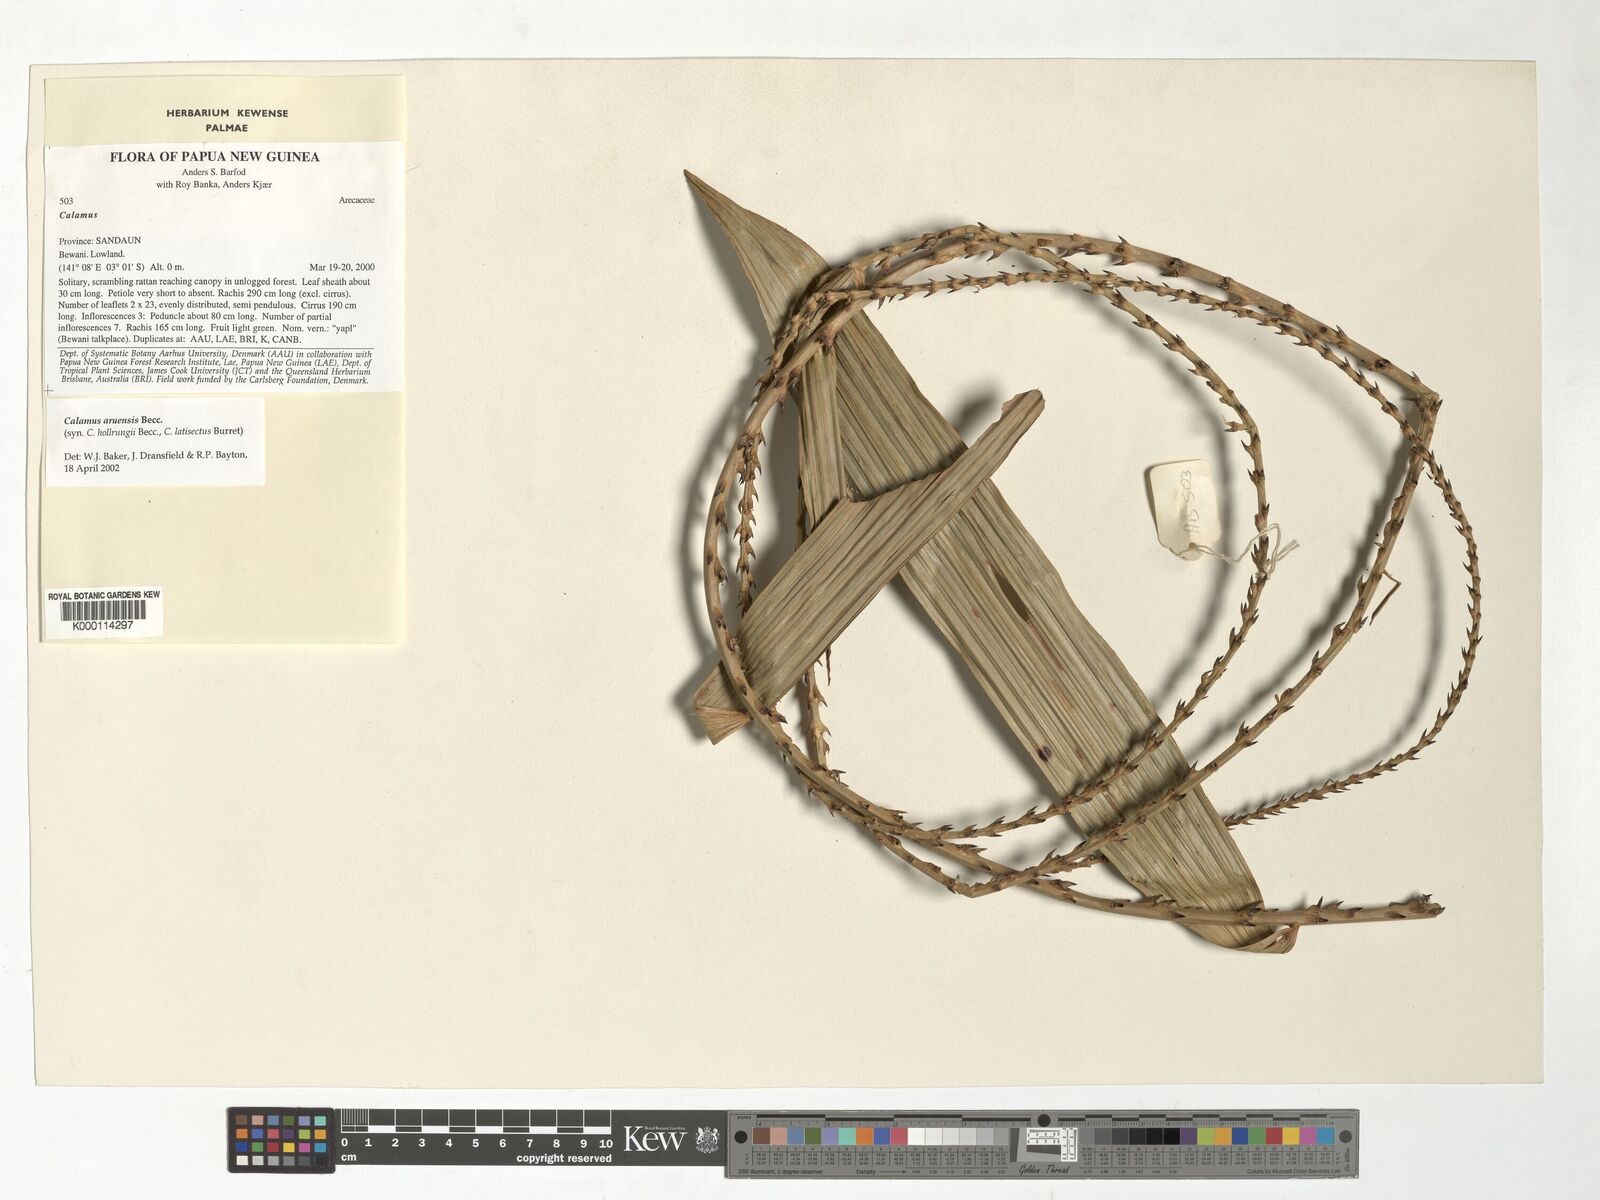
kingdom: Plantae
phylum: Tracheophyta
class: Liliopsida
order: Arecales
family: Arecaceae
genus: Calamus
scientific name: Calamus aruensis
